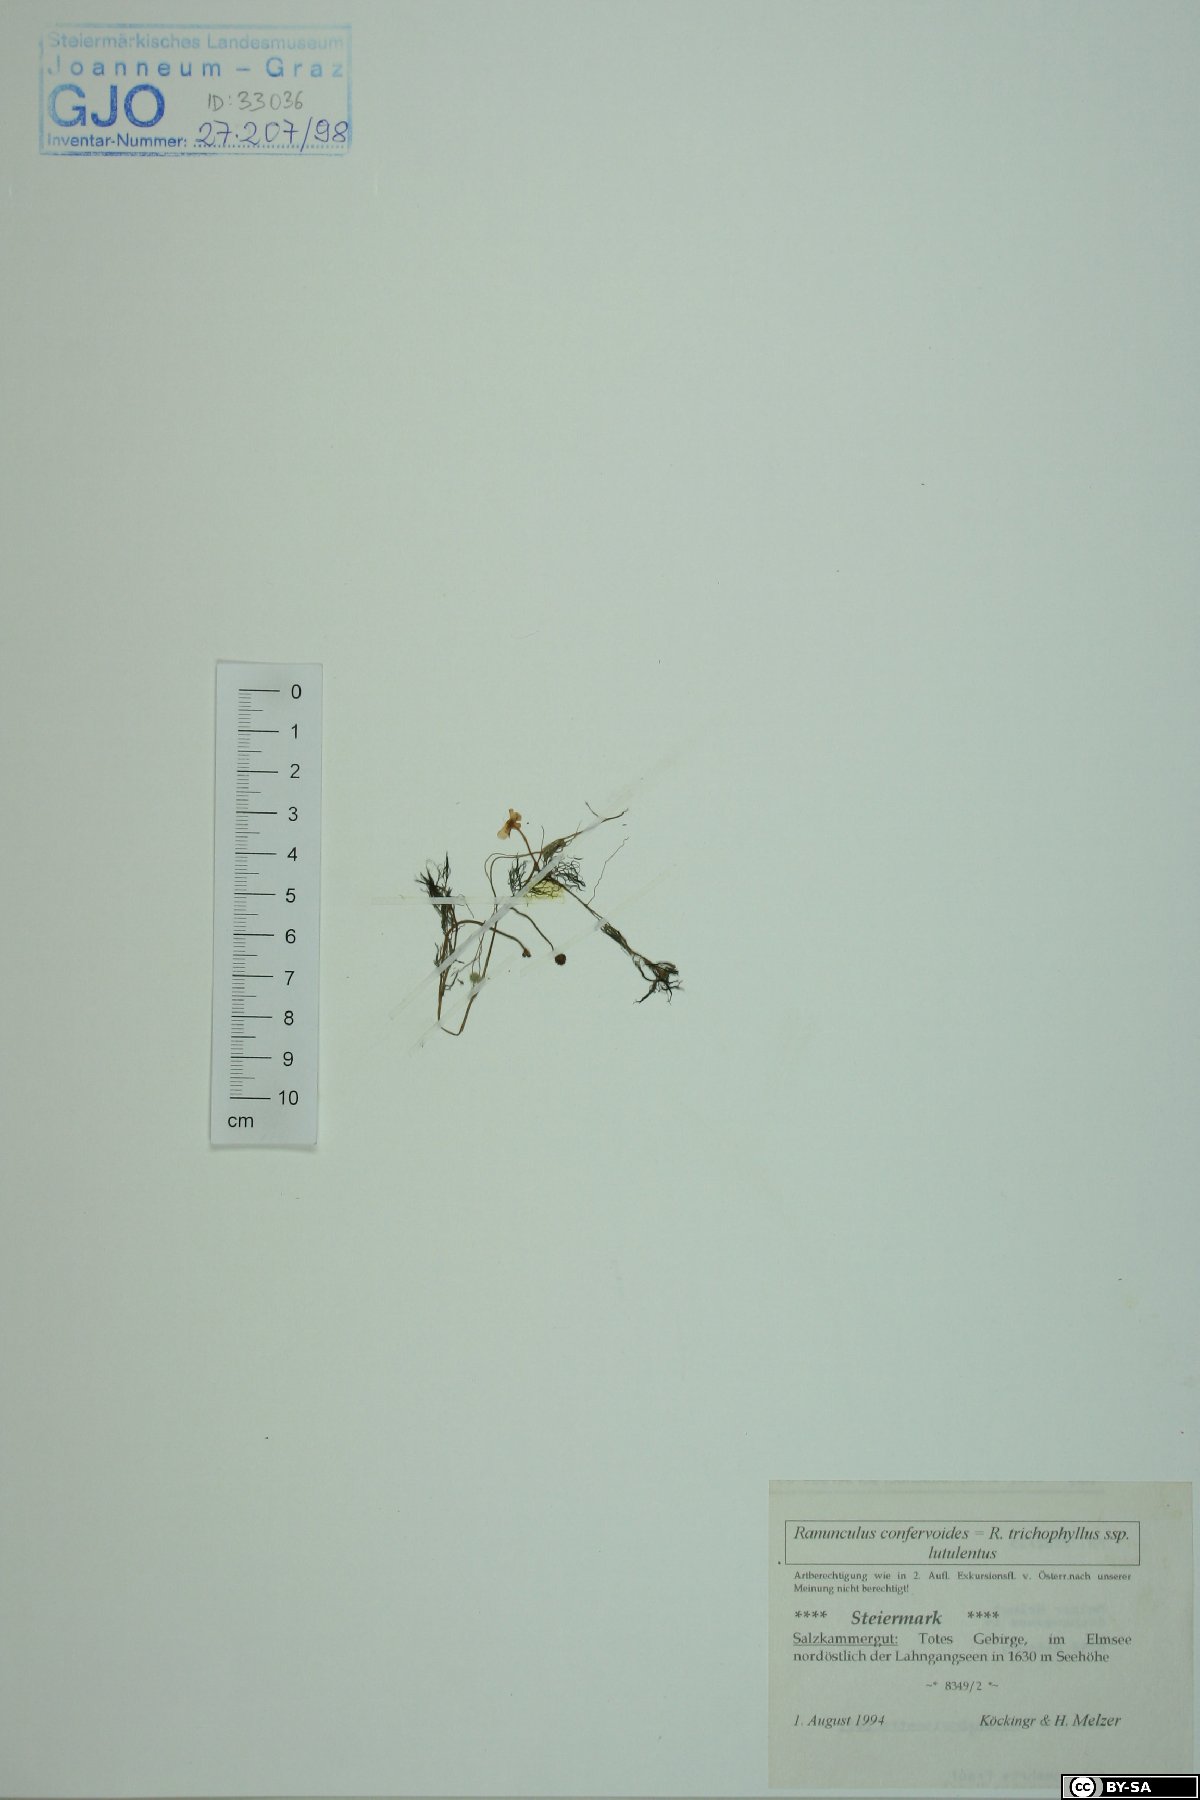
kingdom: Plantae
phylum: Tracheophyta
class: Magnoliopsida
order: Ranunculales
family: Ranunculaceae
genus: Ranunculus
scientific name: Ranunculus confervoides
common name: Delicate buttercup
